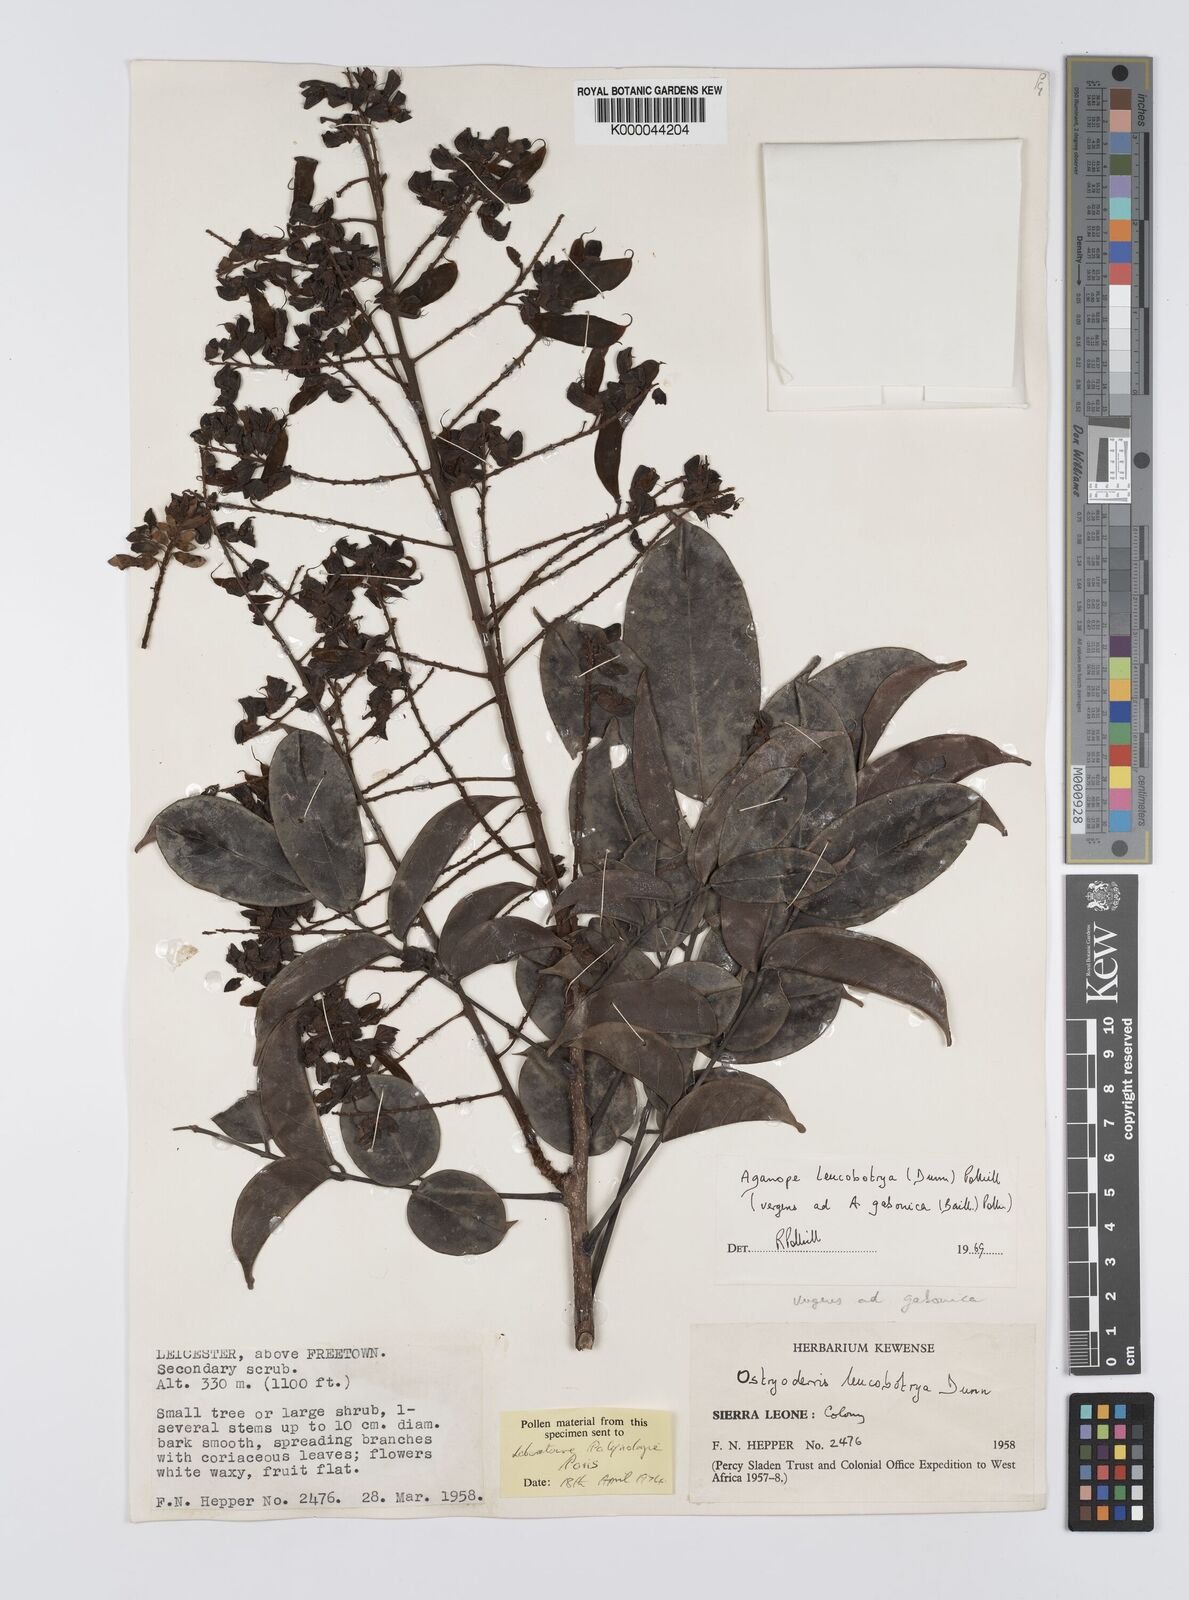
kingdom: Plantae
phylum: Tracheophyta
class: Magnoliopsida
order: Fabales
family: Fabaceae
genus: Aganope
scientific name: Aganope leucobotrya
